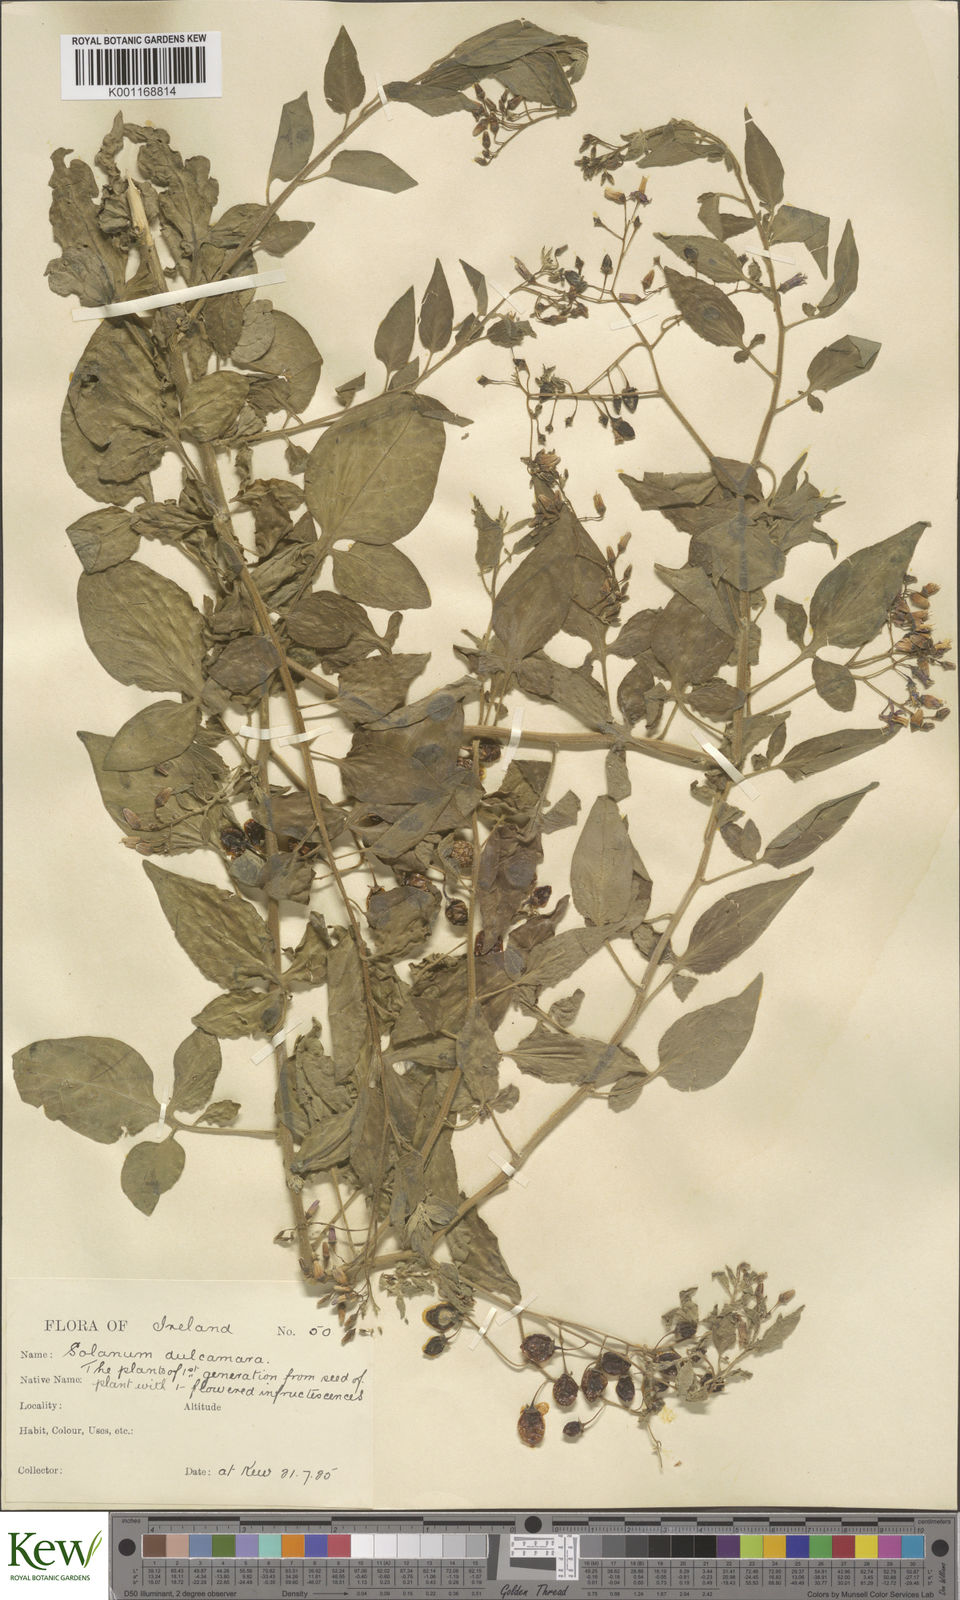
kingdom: Plantae
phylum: Tracheophyta
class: Magnoliopsida
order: Solanales
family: Solanaceae
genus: Solanum
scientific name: Solanum dulcamara
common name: Climbing nightshade
